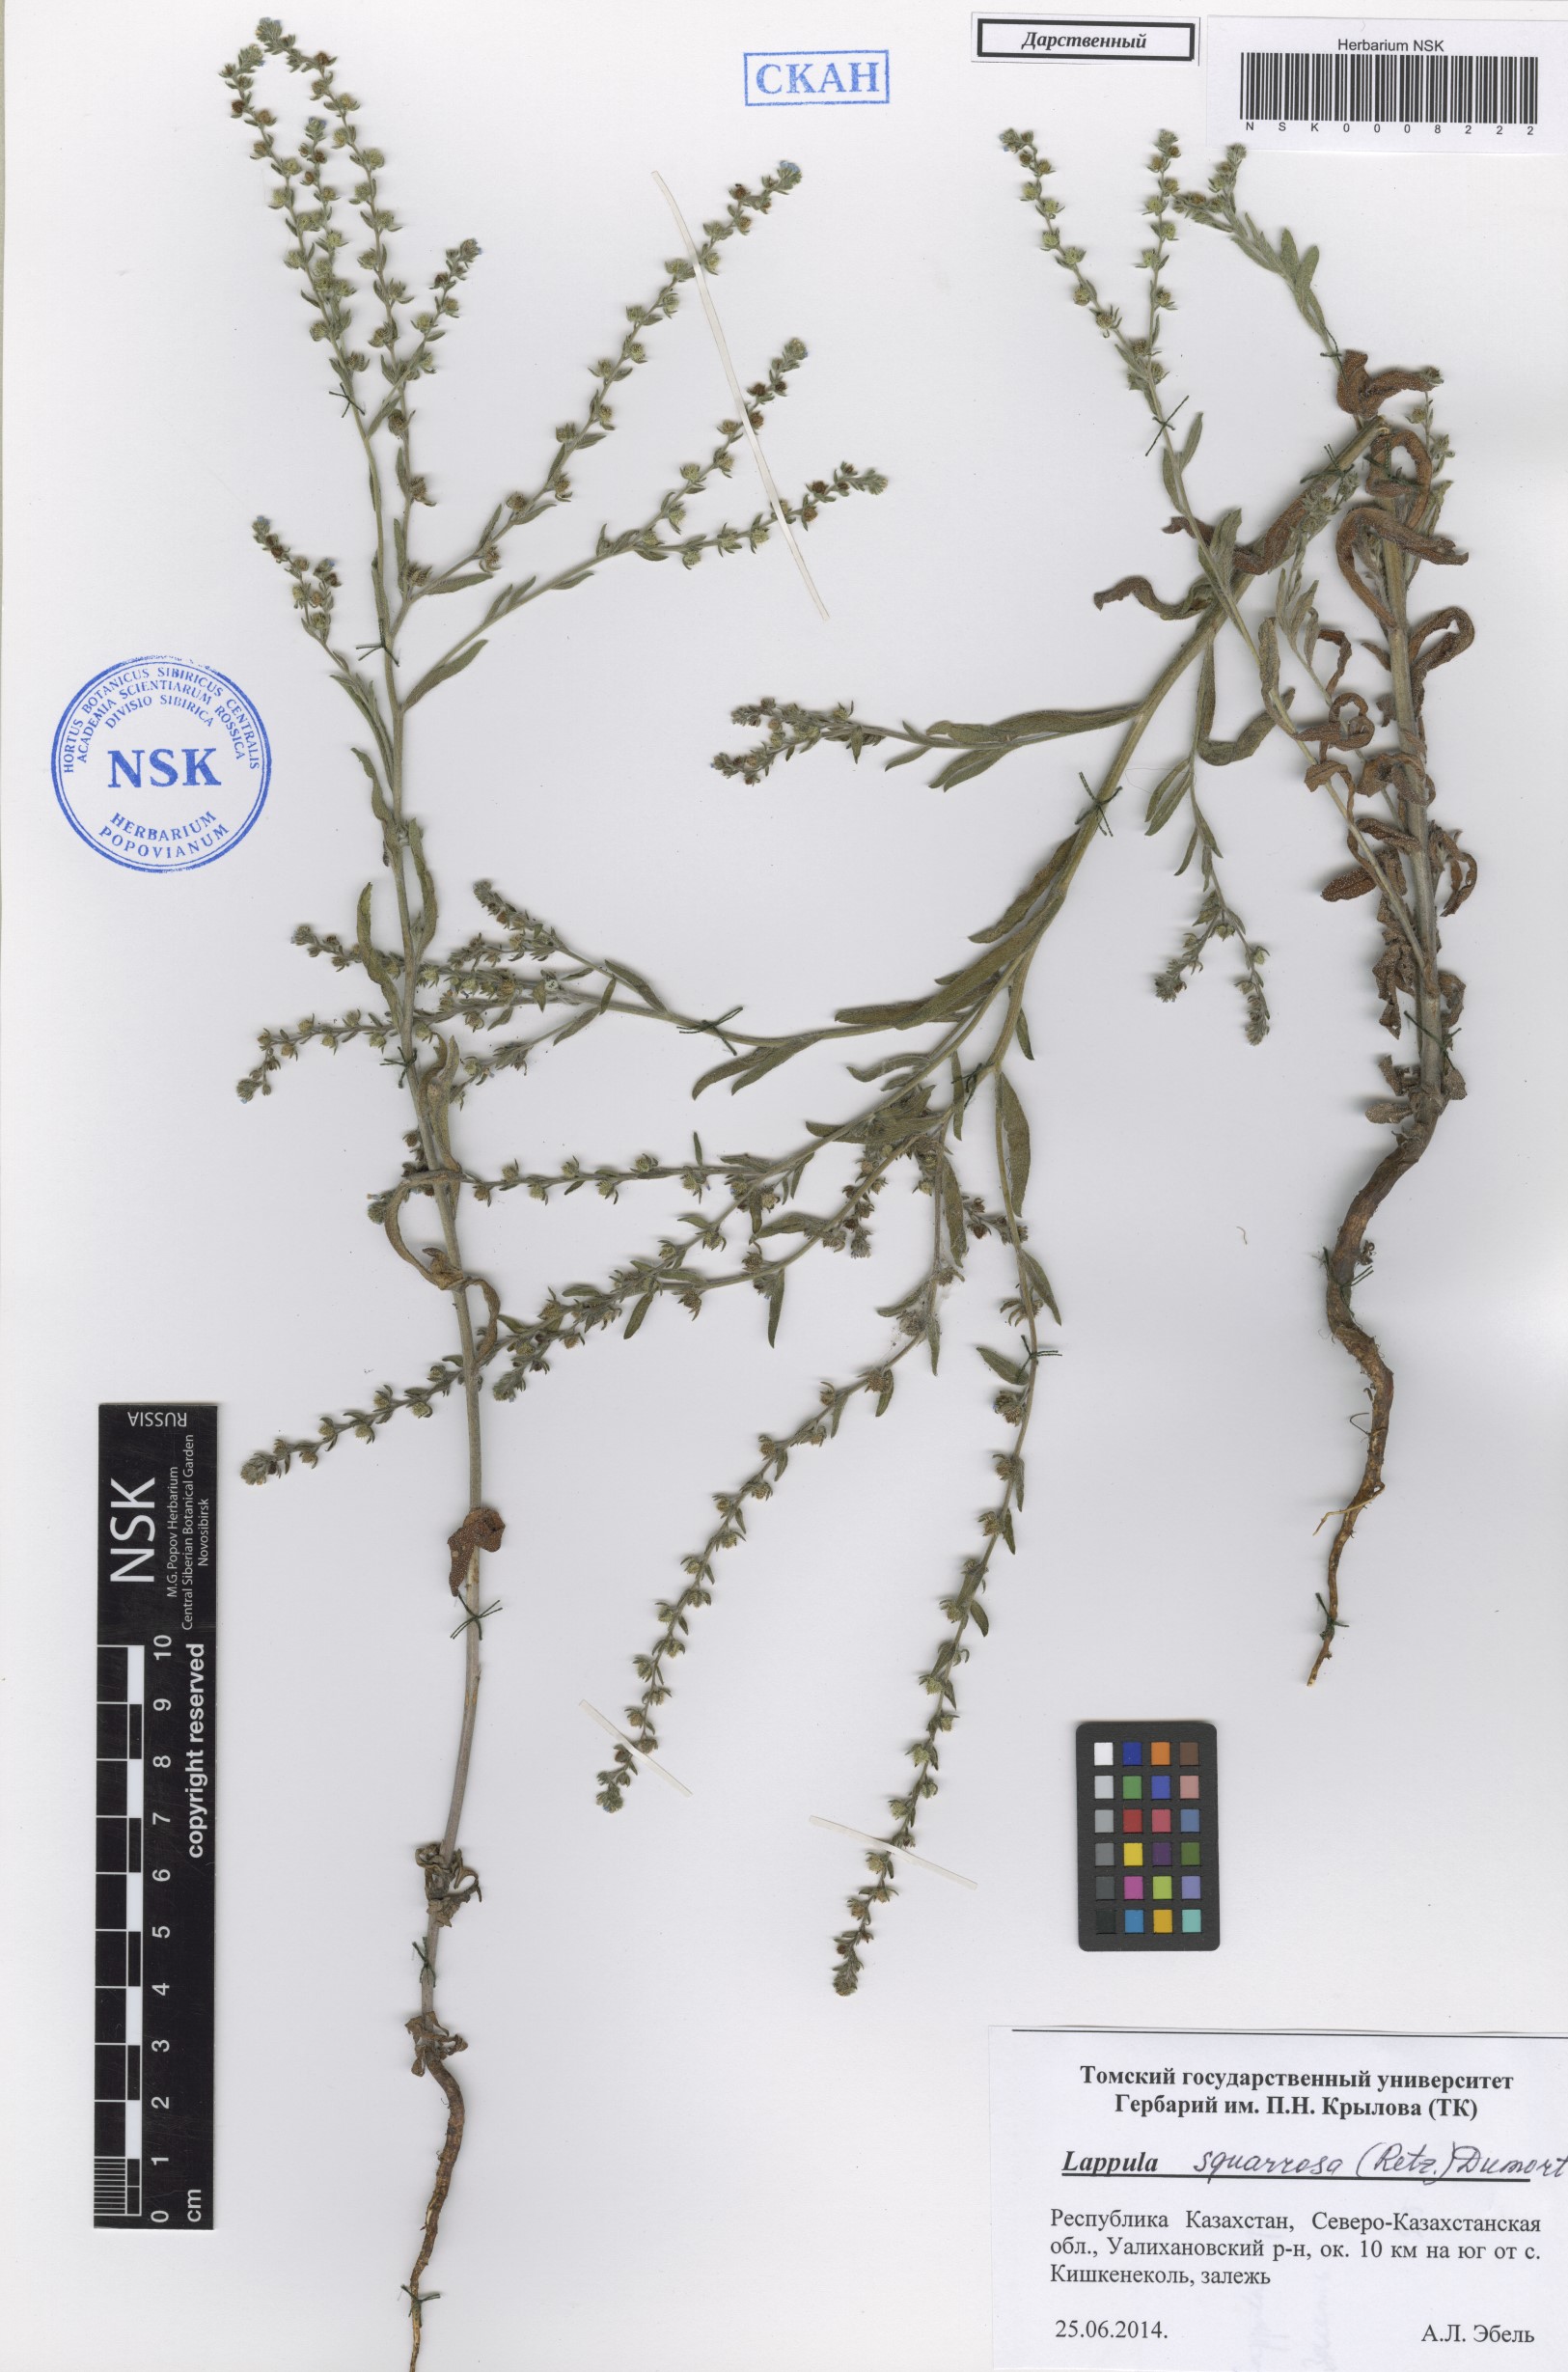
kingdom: Plantae
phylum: Tracheophyta
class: Magnoliopsida
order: Boraginales
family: Boraginaceae
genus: Lappula
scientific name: Lappula squarrosa
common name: European stickseed
